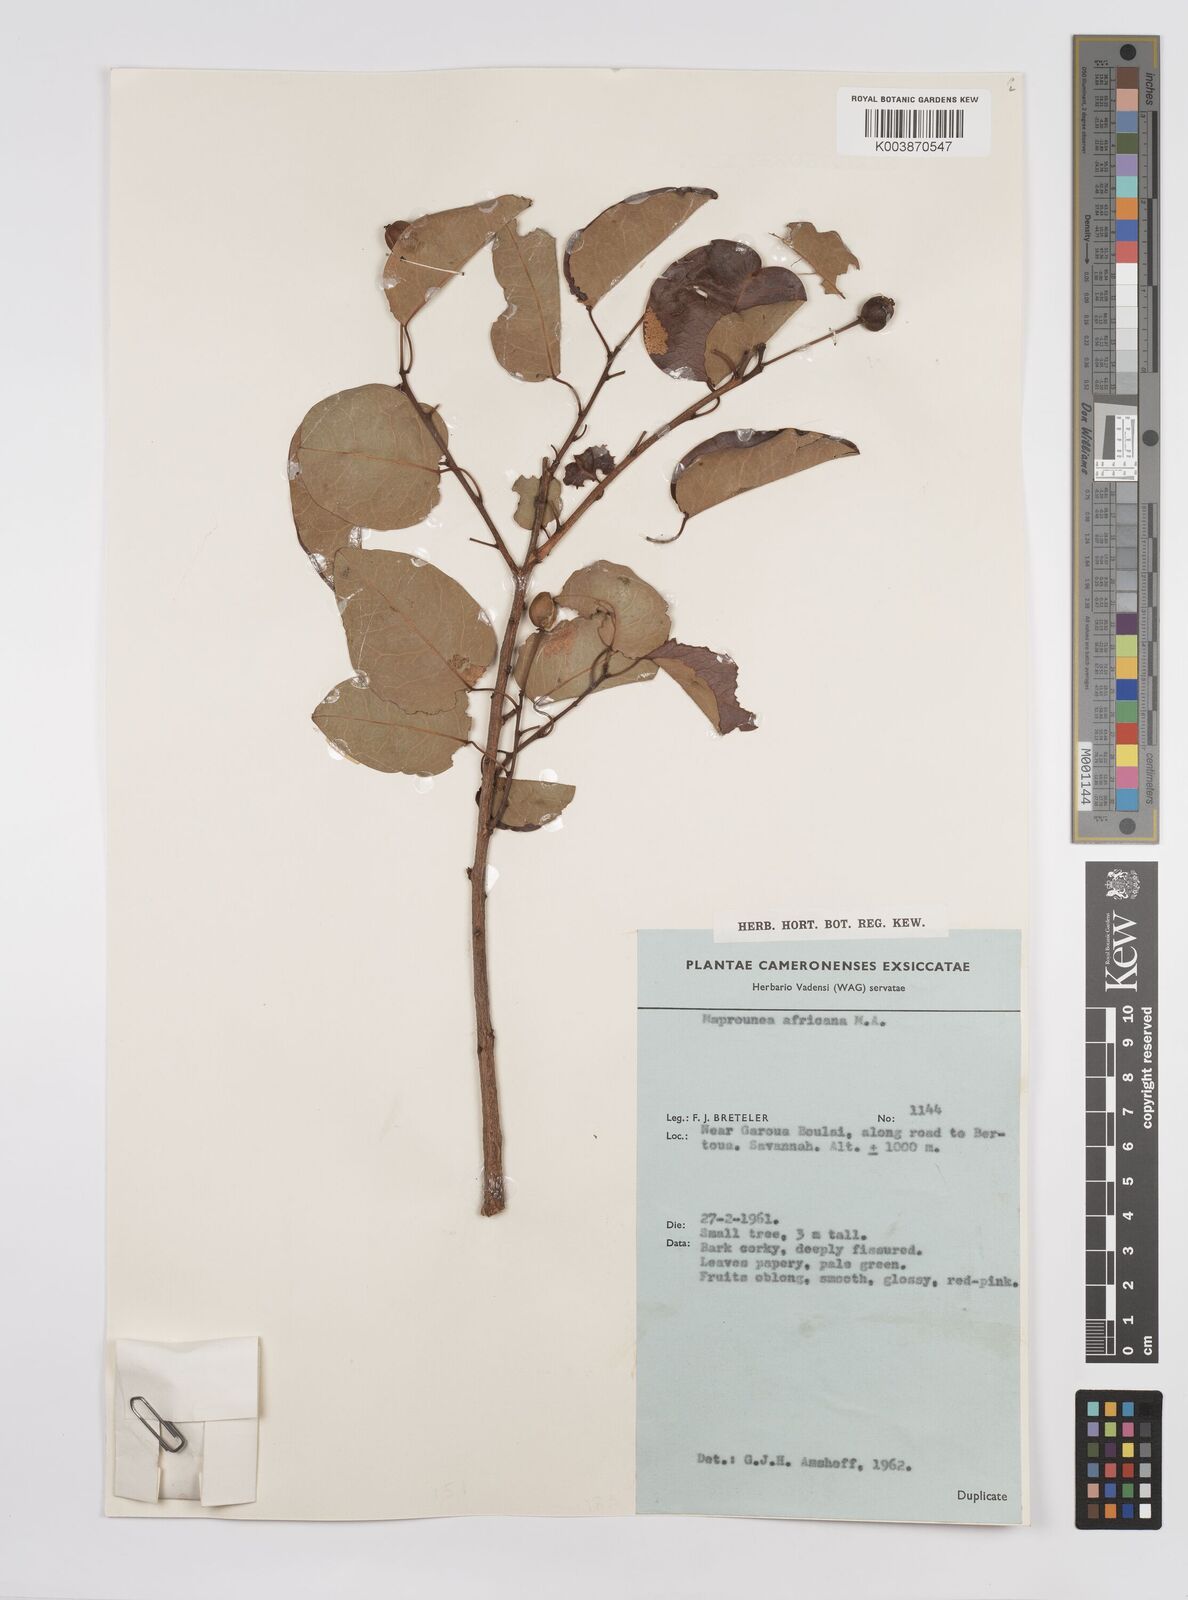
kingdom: Plantae
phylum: Tracheophyta
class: Magnoliopsida
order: Malpighiales
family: Euphorbiaceae
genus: Maprounea
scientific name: Maprounea africana
